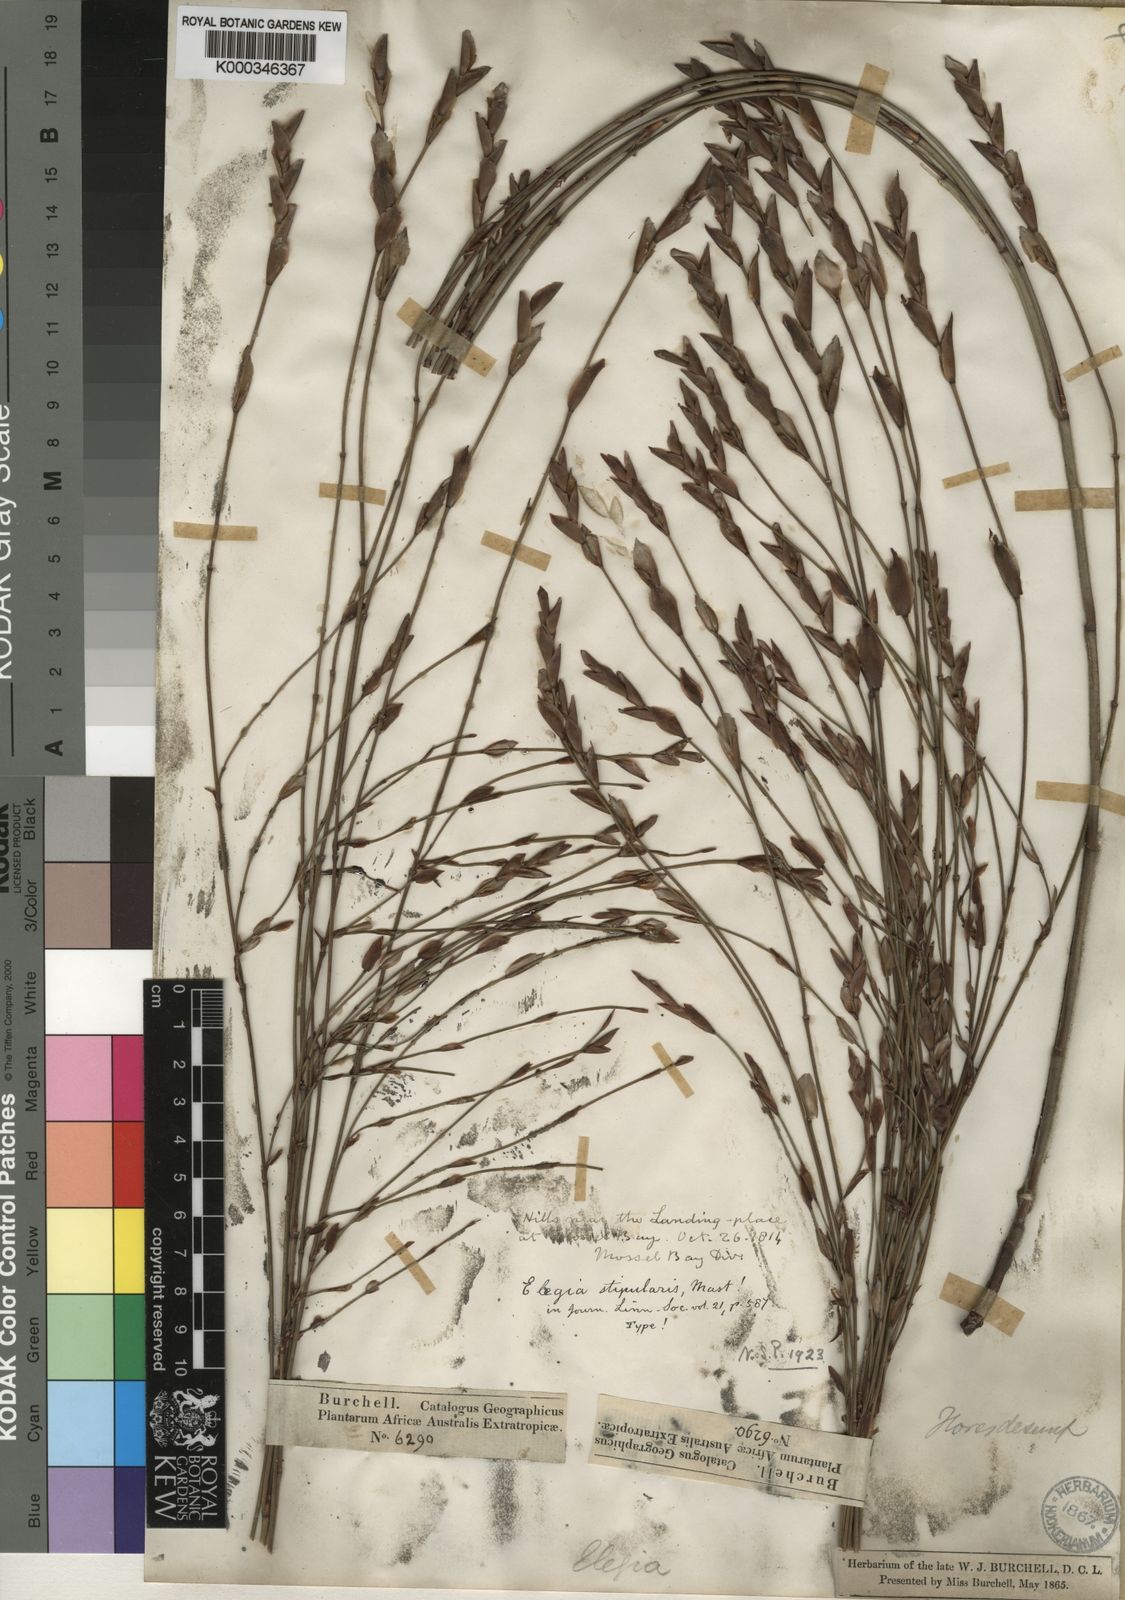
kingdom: Plantae
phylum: Tracheophyta
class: Liliopsida
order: Poales
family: Restionaceae
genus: Elegia
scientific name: Elegia stipularis
